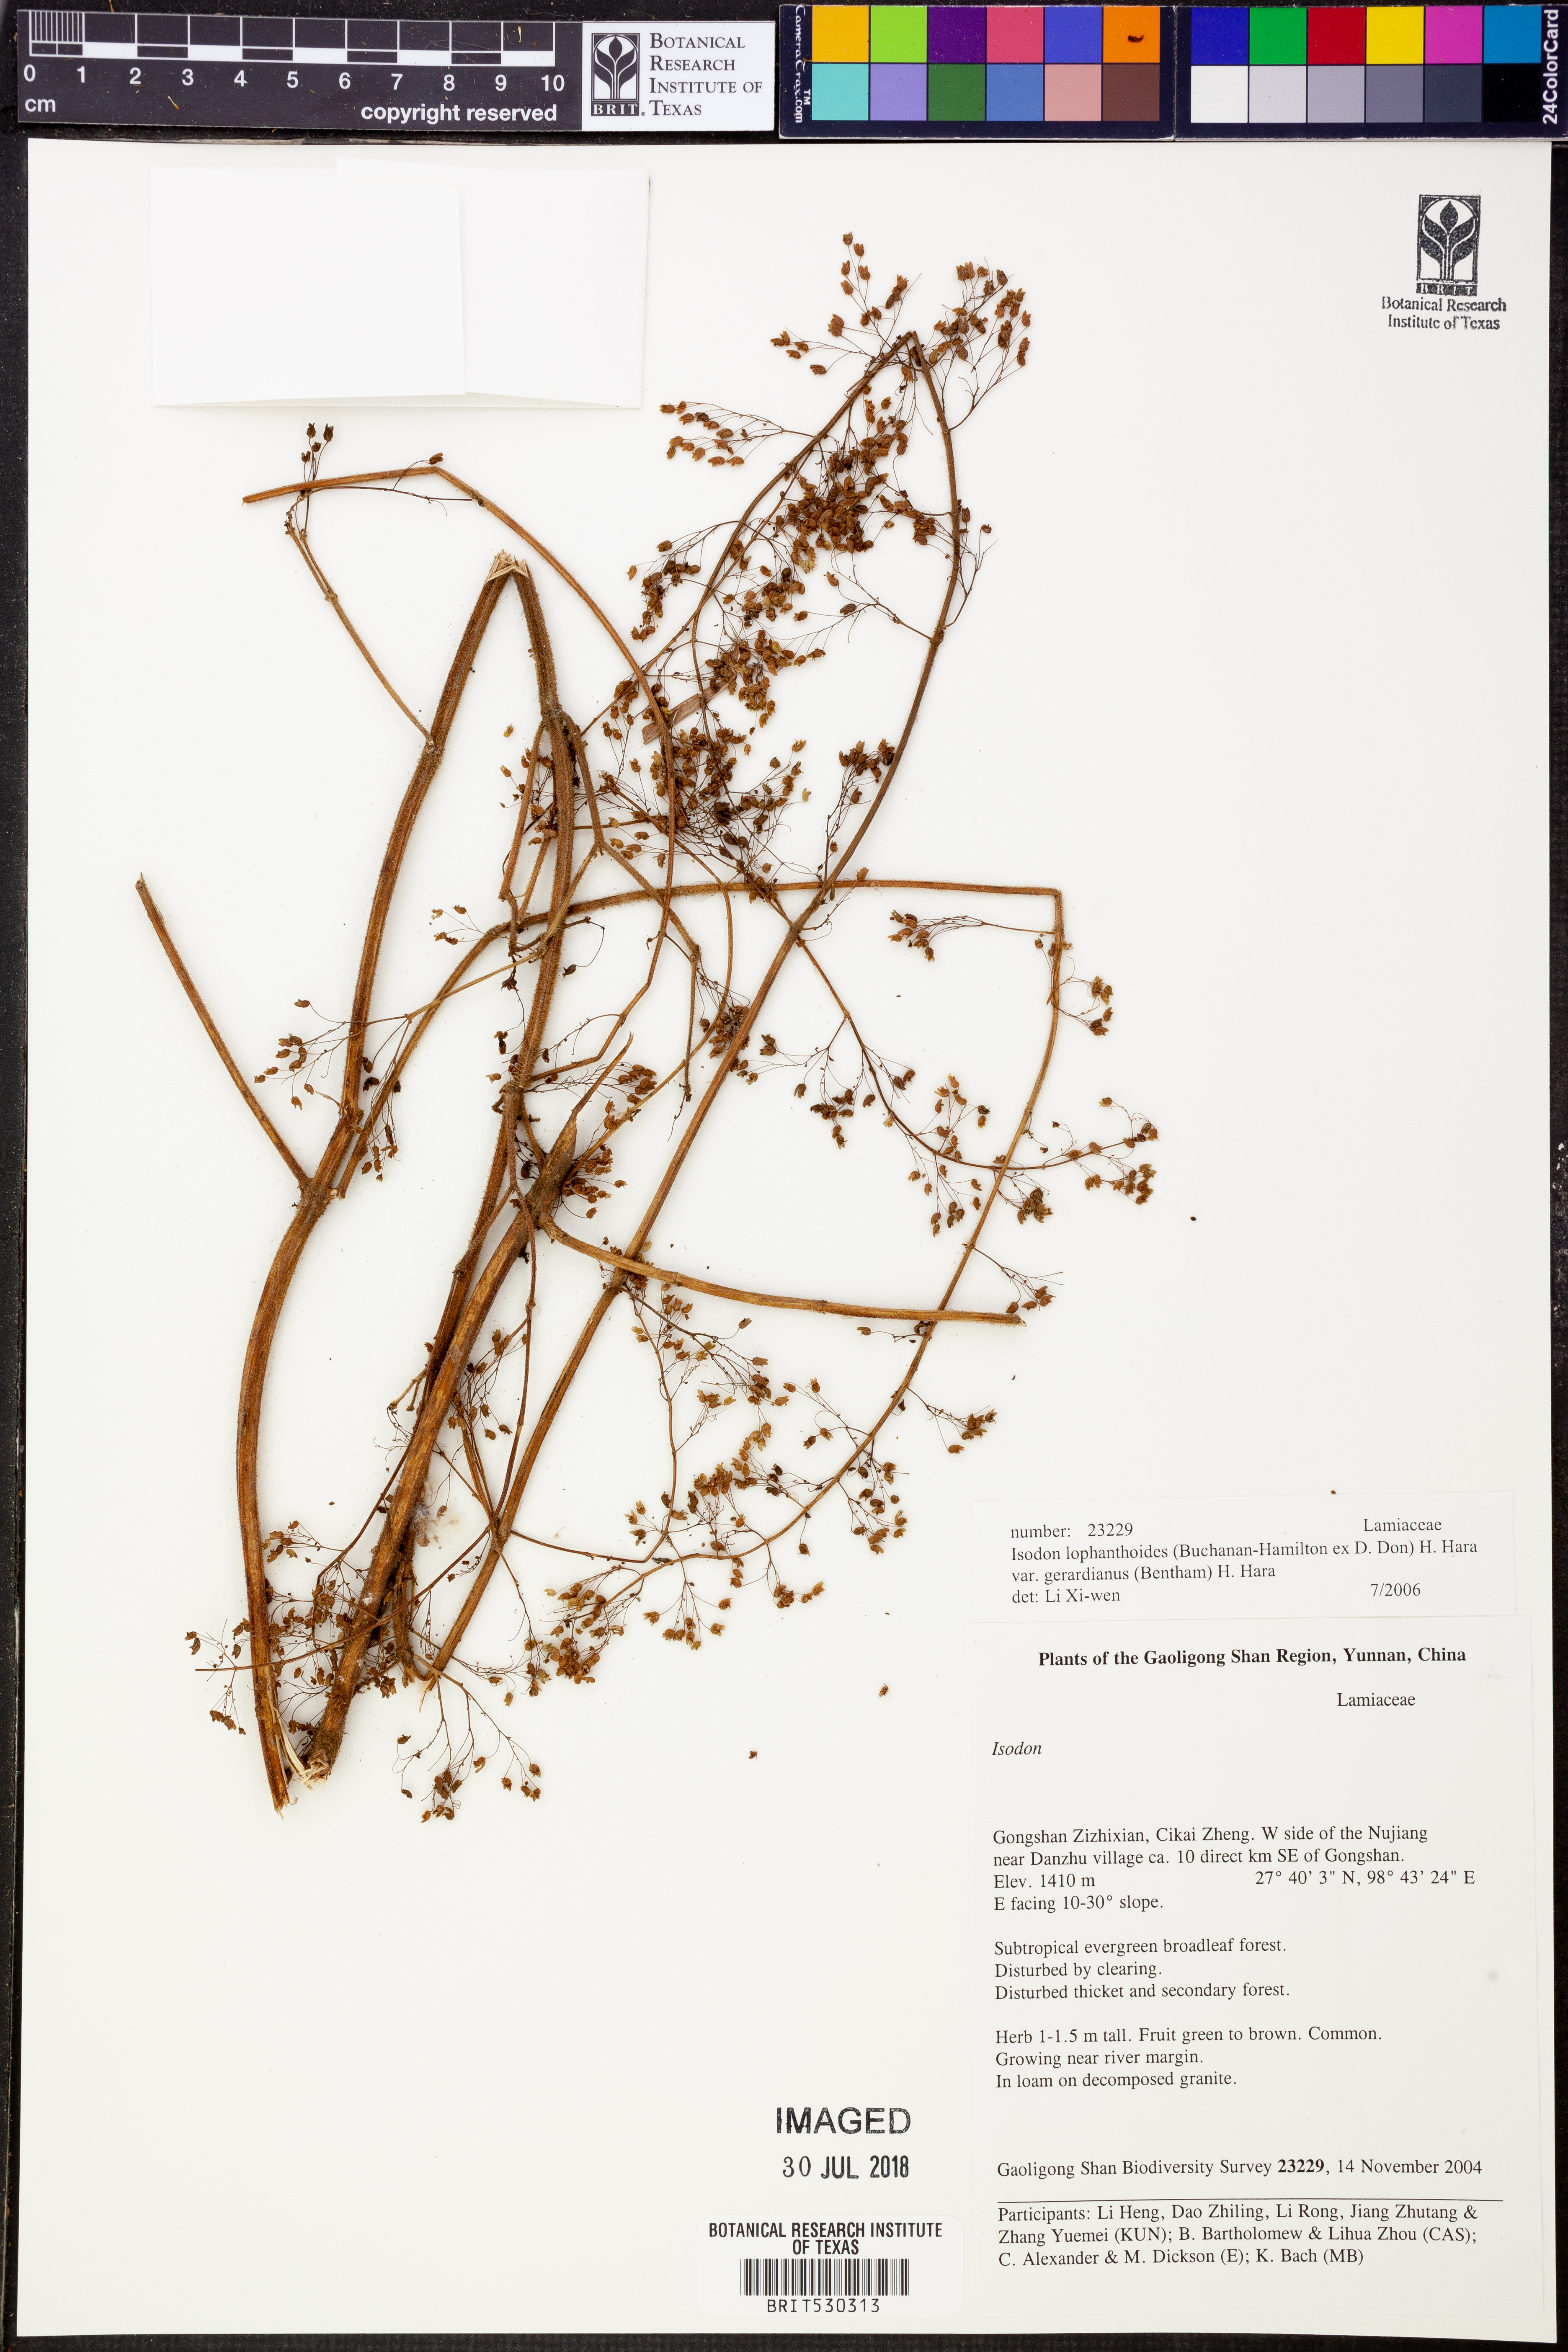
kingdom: Plantae
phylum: Tracheophyta
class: Magnoliopsida
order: Lamiales
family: Lamiaceae
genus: Isodon
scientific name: Isodon lophanthoides
